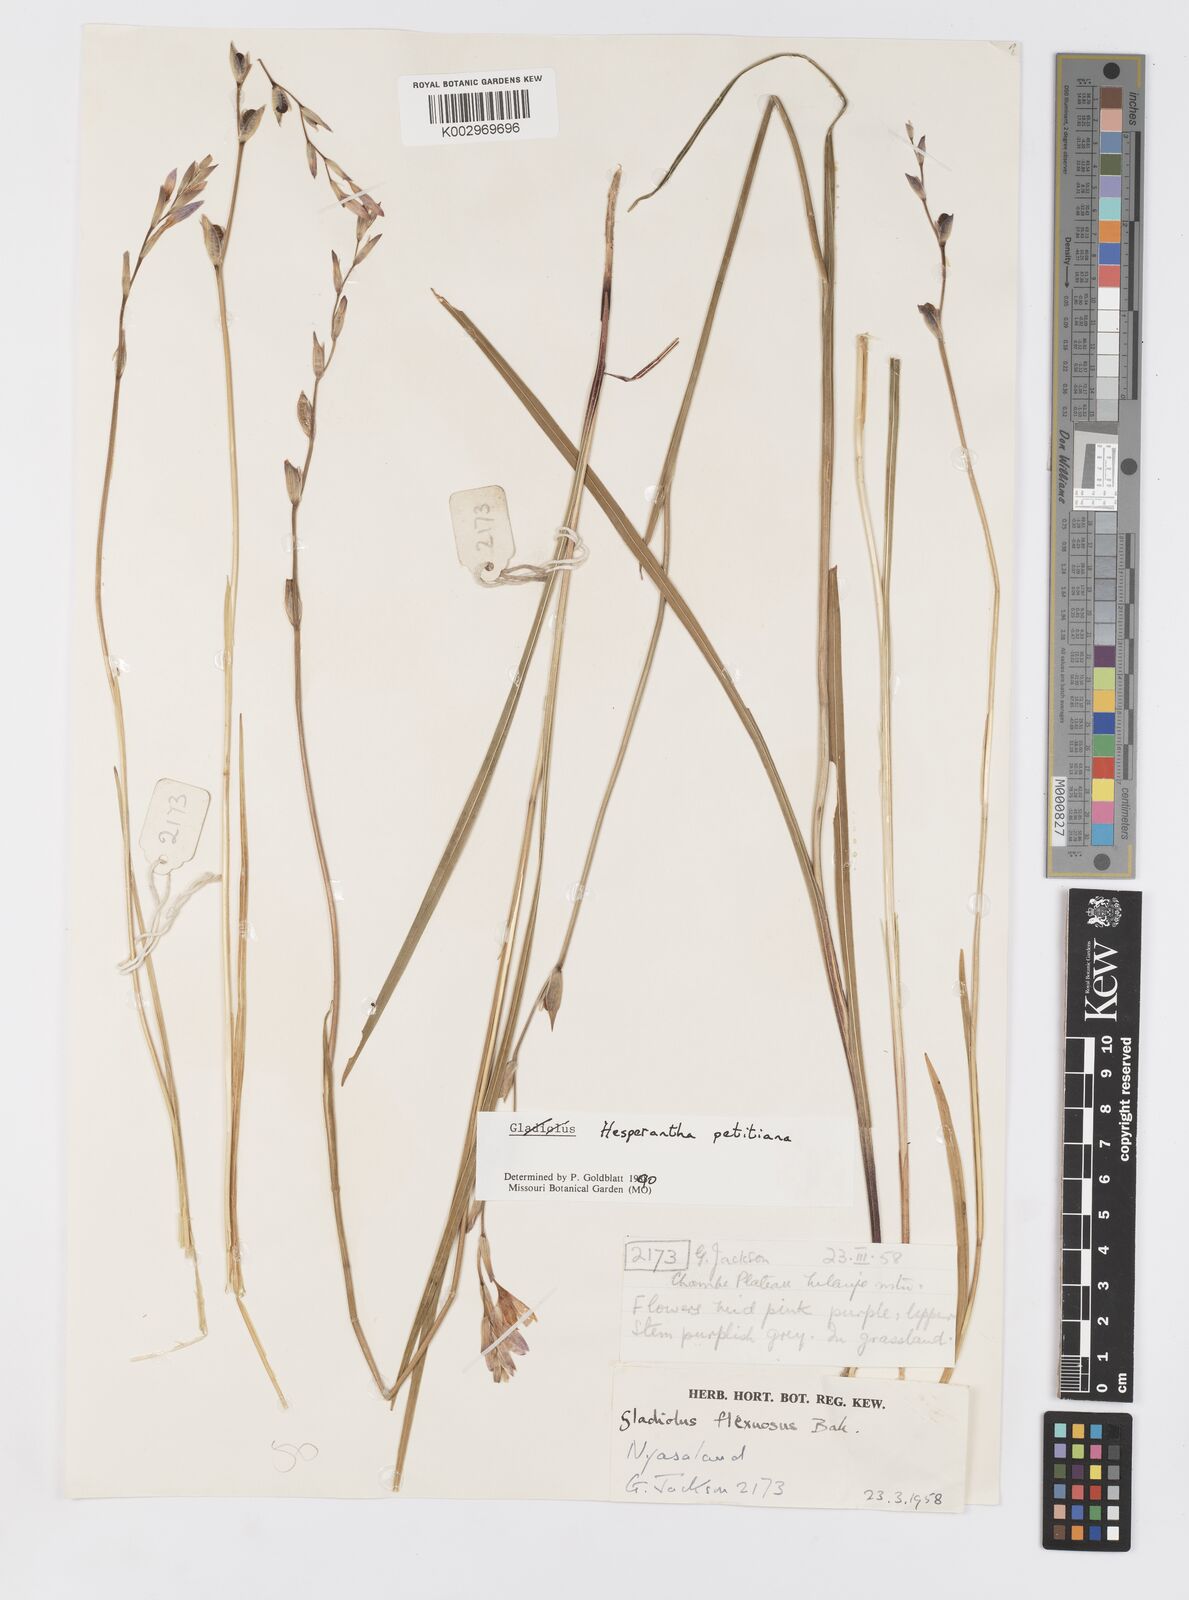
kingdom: Plantae
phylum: Tracheophyta
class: Liliopsida
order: Asparagales
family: Iridaceae
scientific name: Iridaceae
